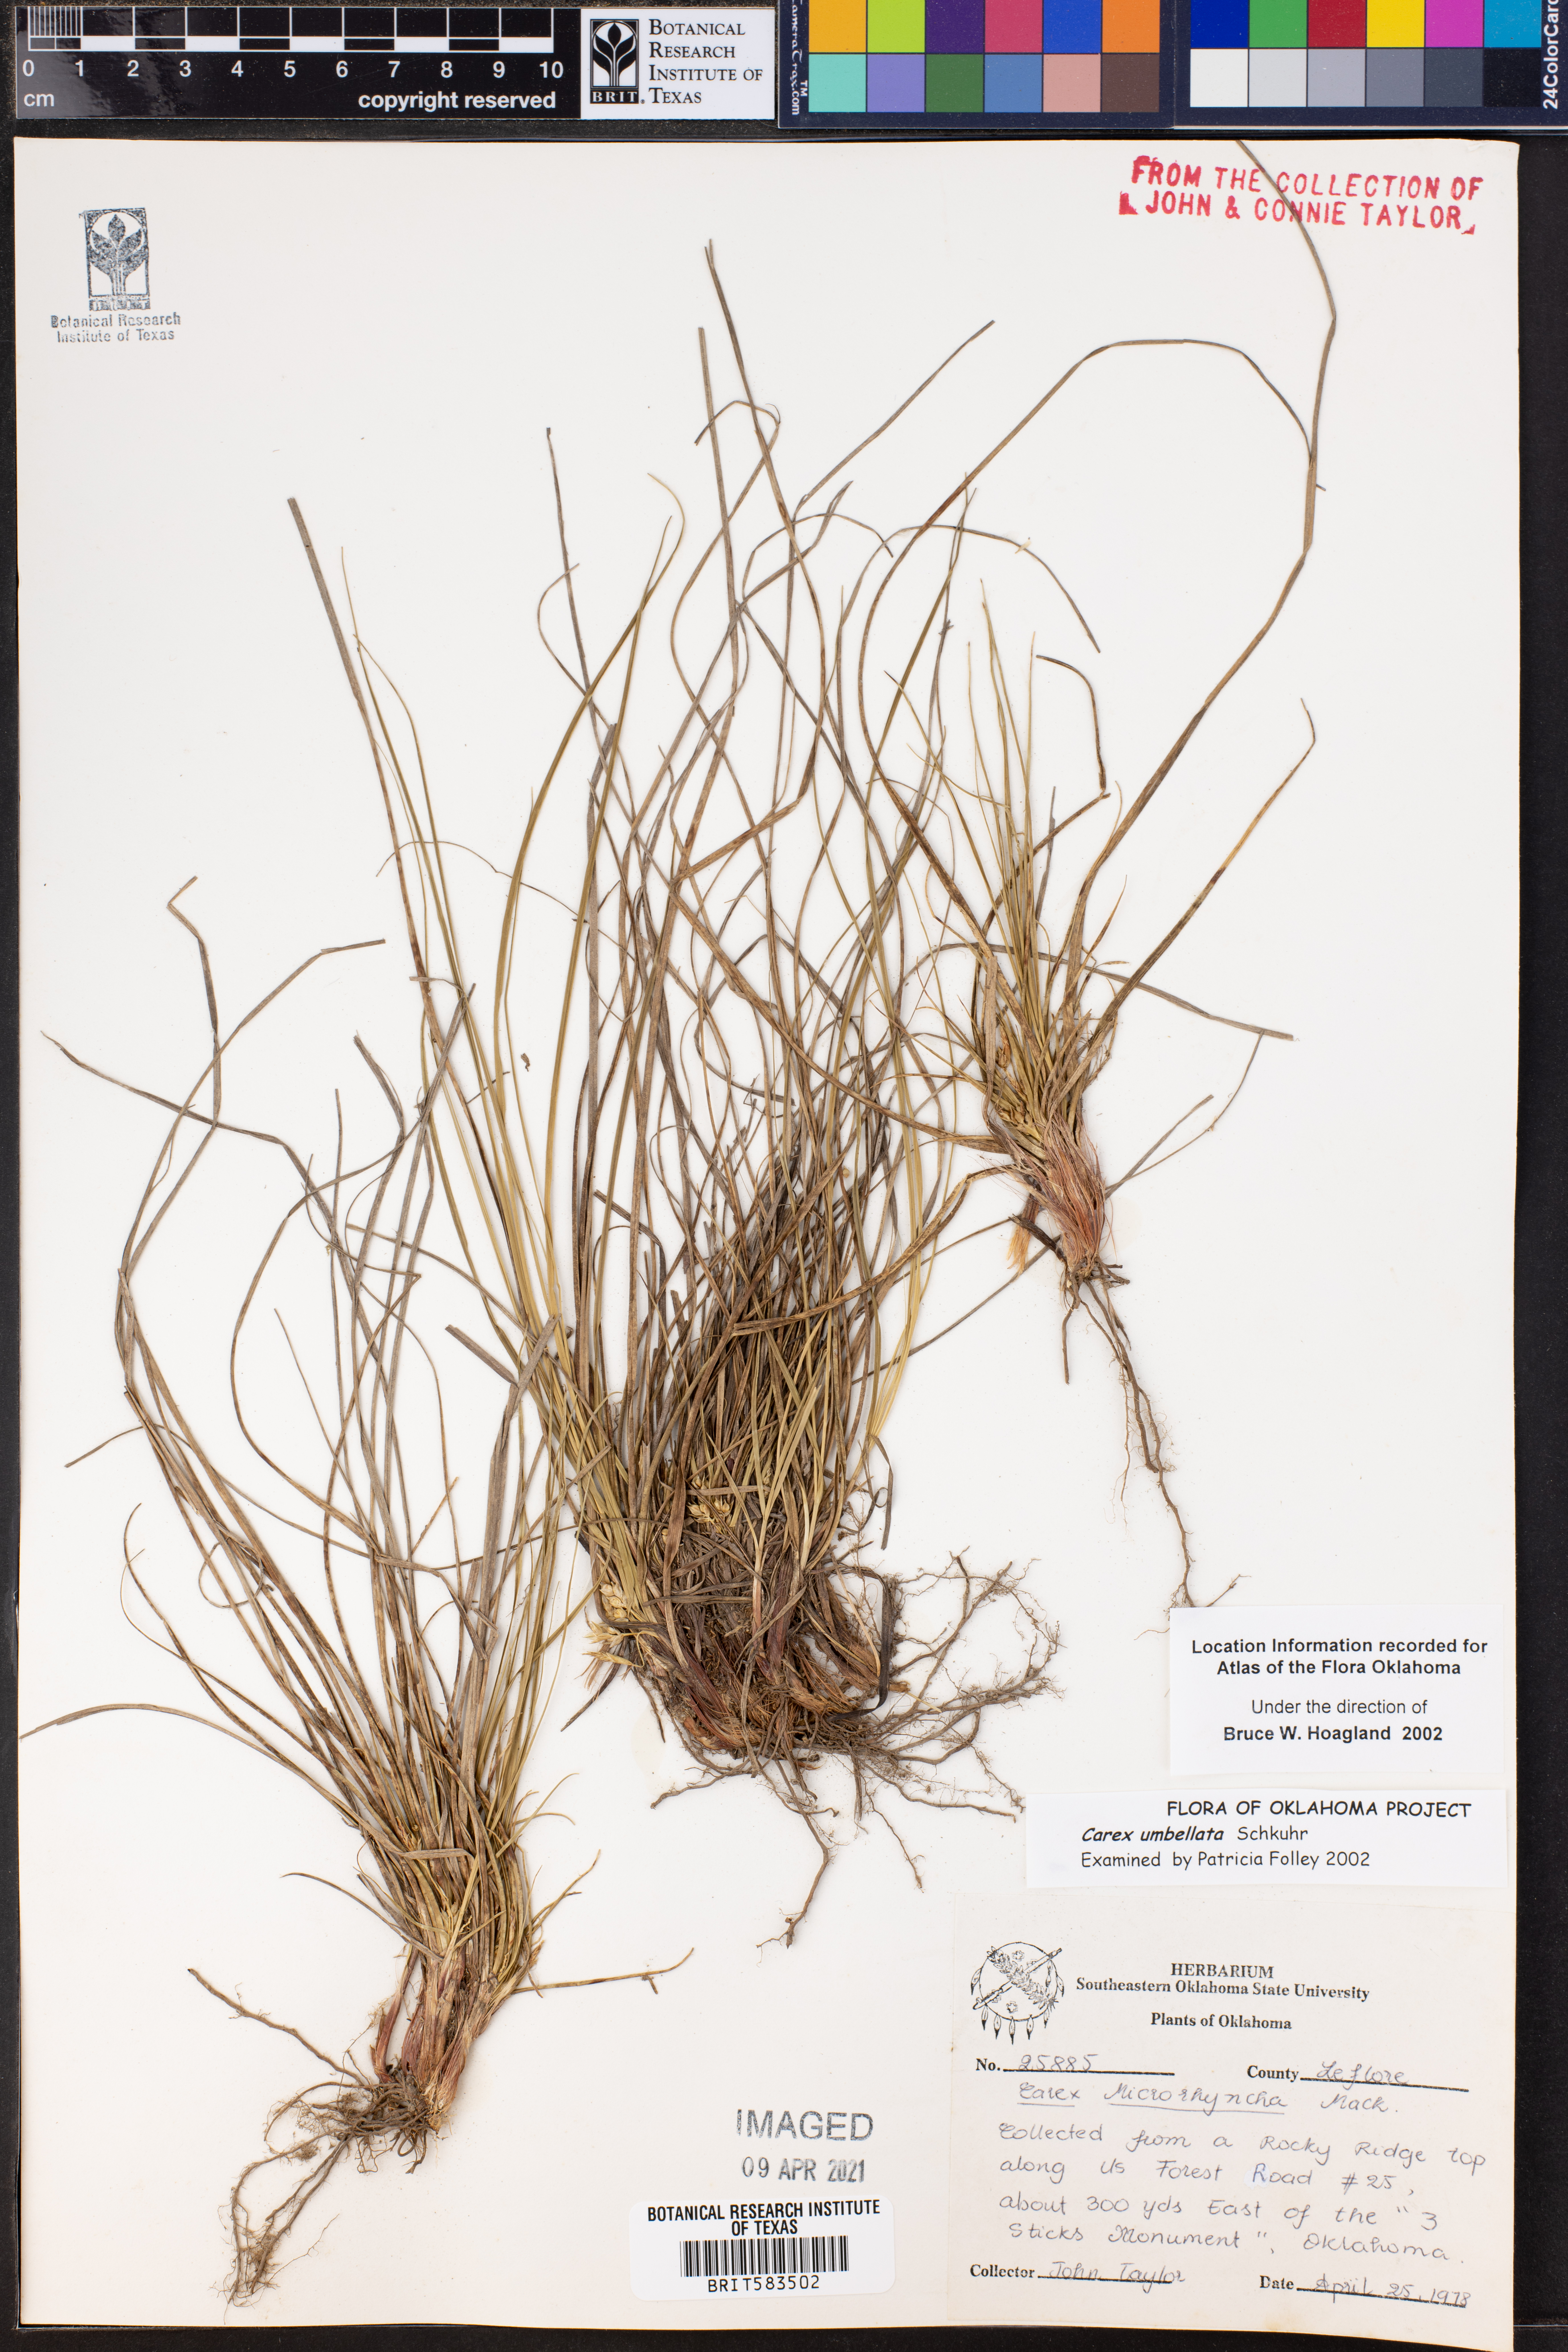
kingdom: Plantae
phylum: Tracheophyta
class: Liliopsida
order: Poales
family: Cyperaceae
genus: Carex
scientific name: Carex umbellata
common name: Early oak sedge
